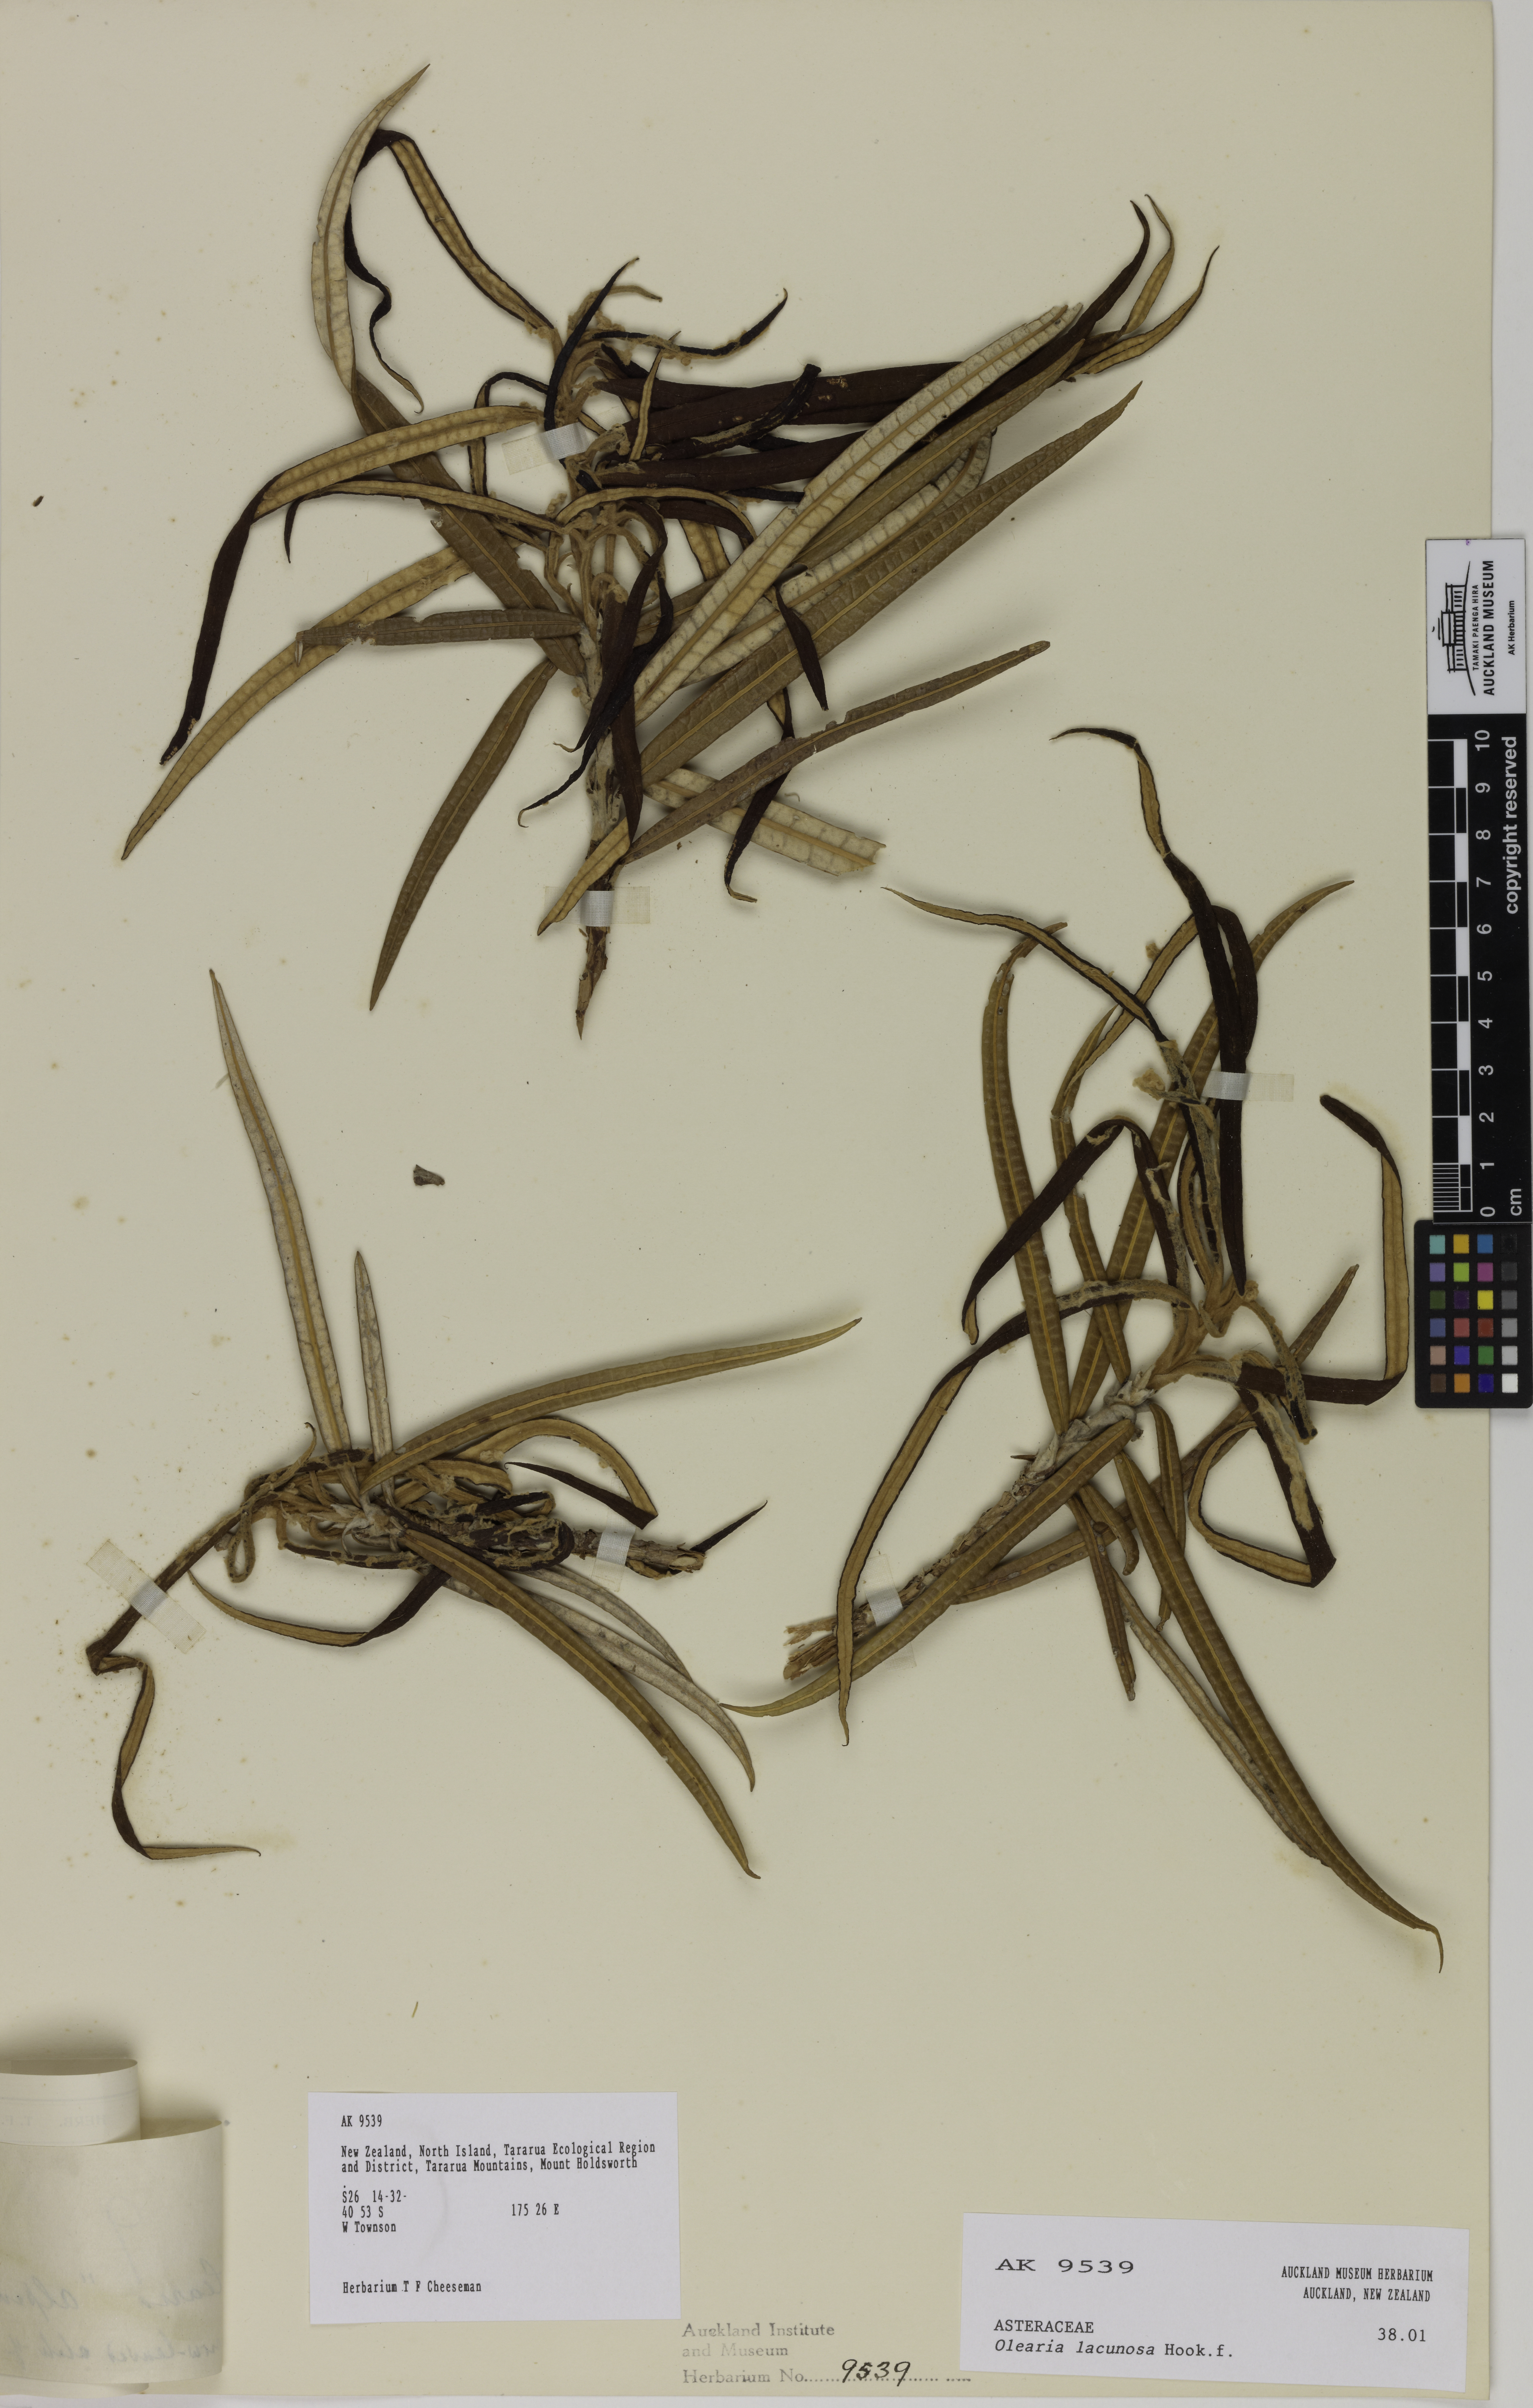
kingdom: Plantae
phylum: Tracheophyta
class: Magnoliopsida
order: Asterales
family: Asteraceae
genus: Olearia
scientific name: Olearia lacunosa
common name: Lancewood tree daisy
